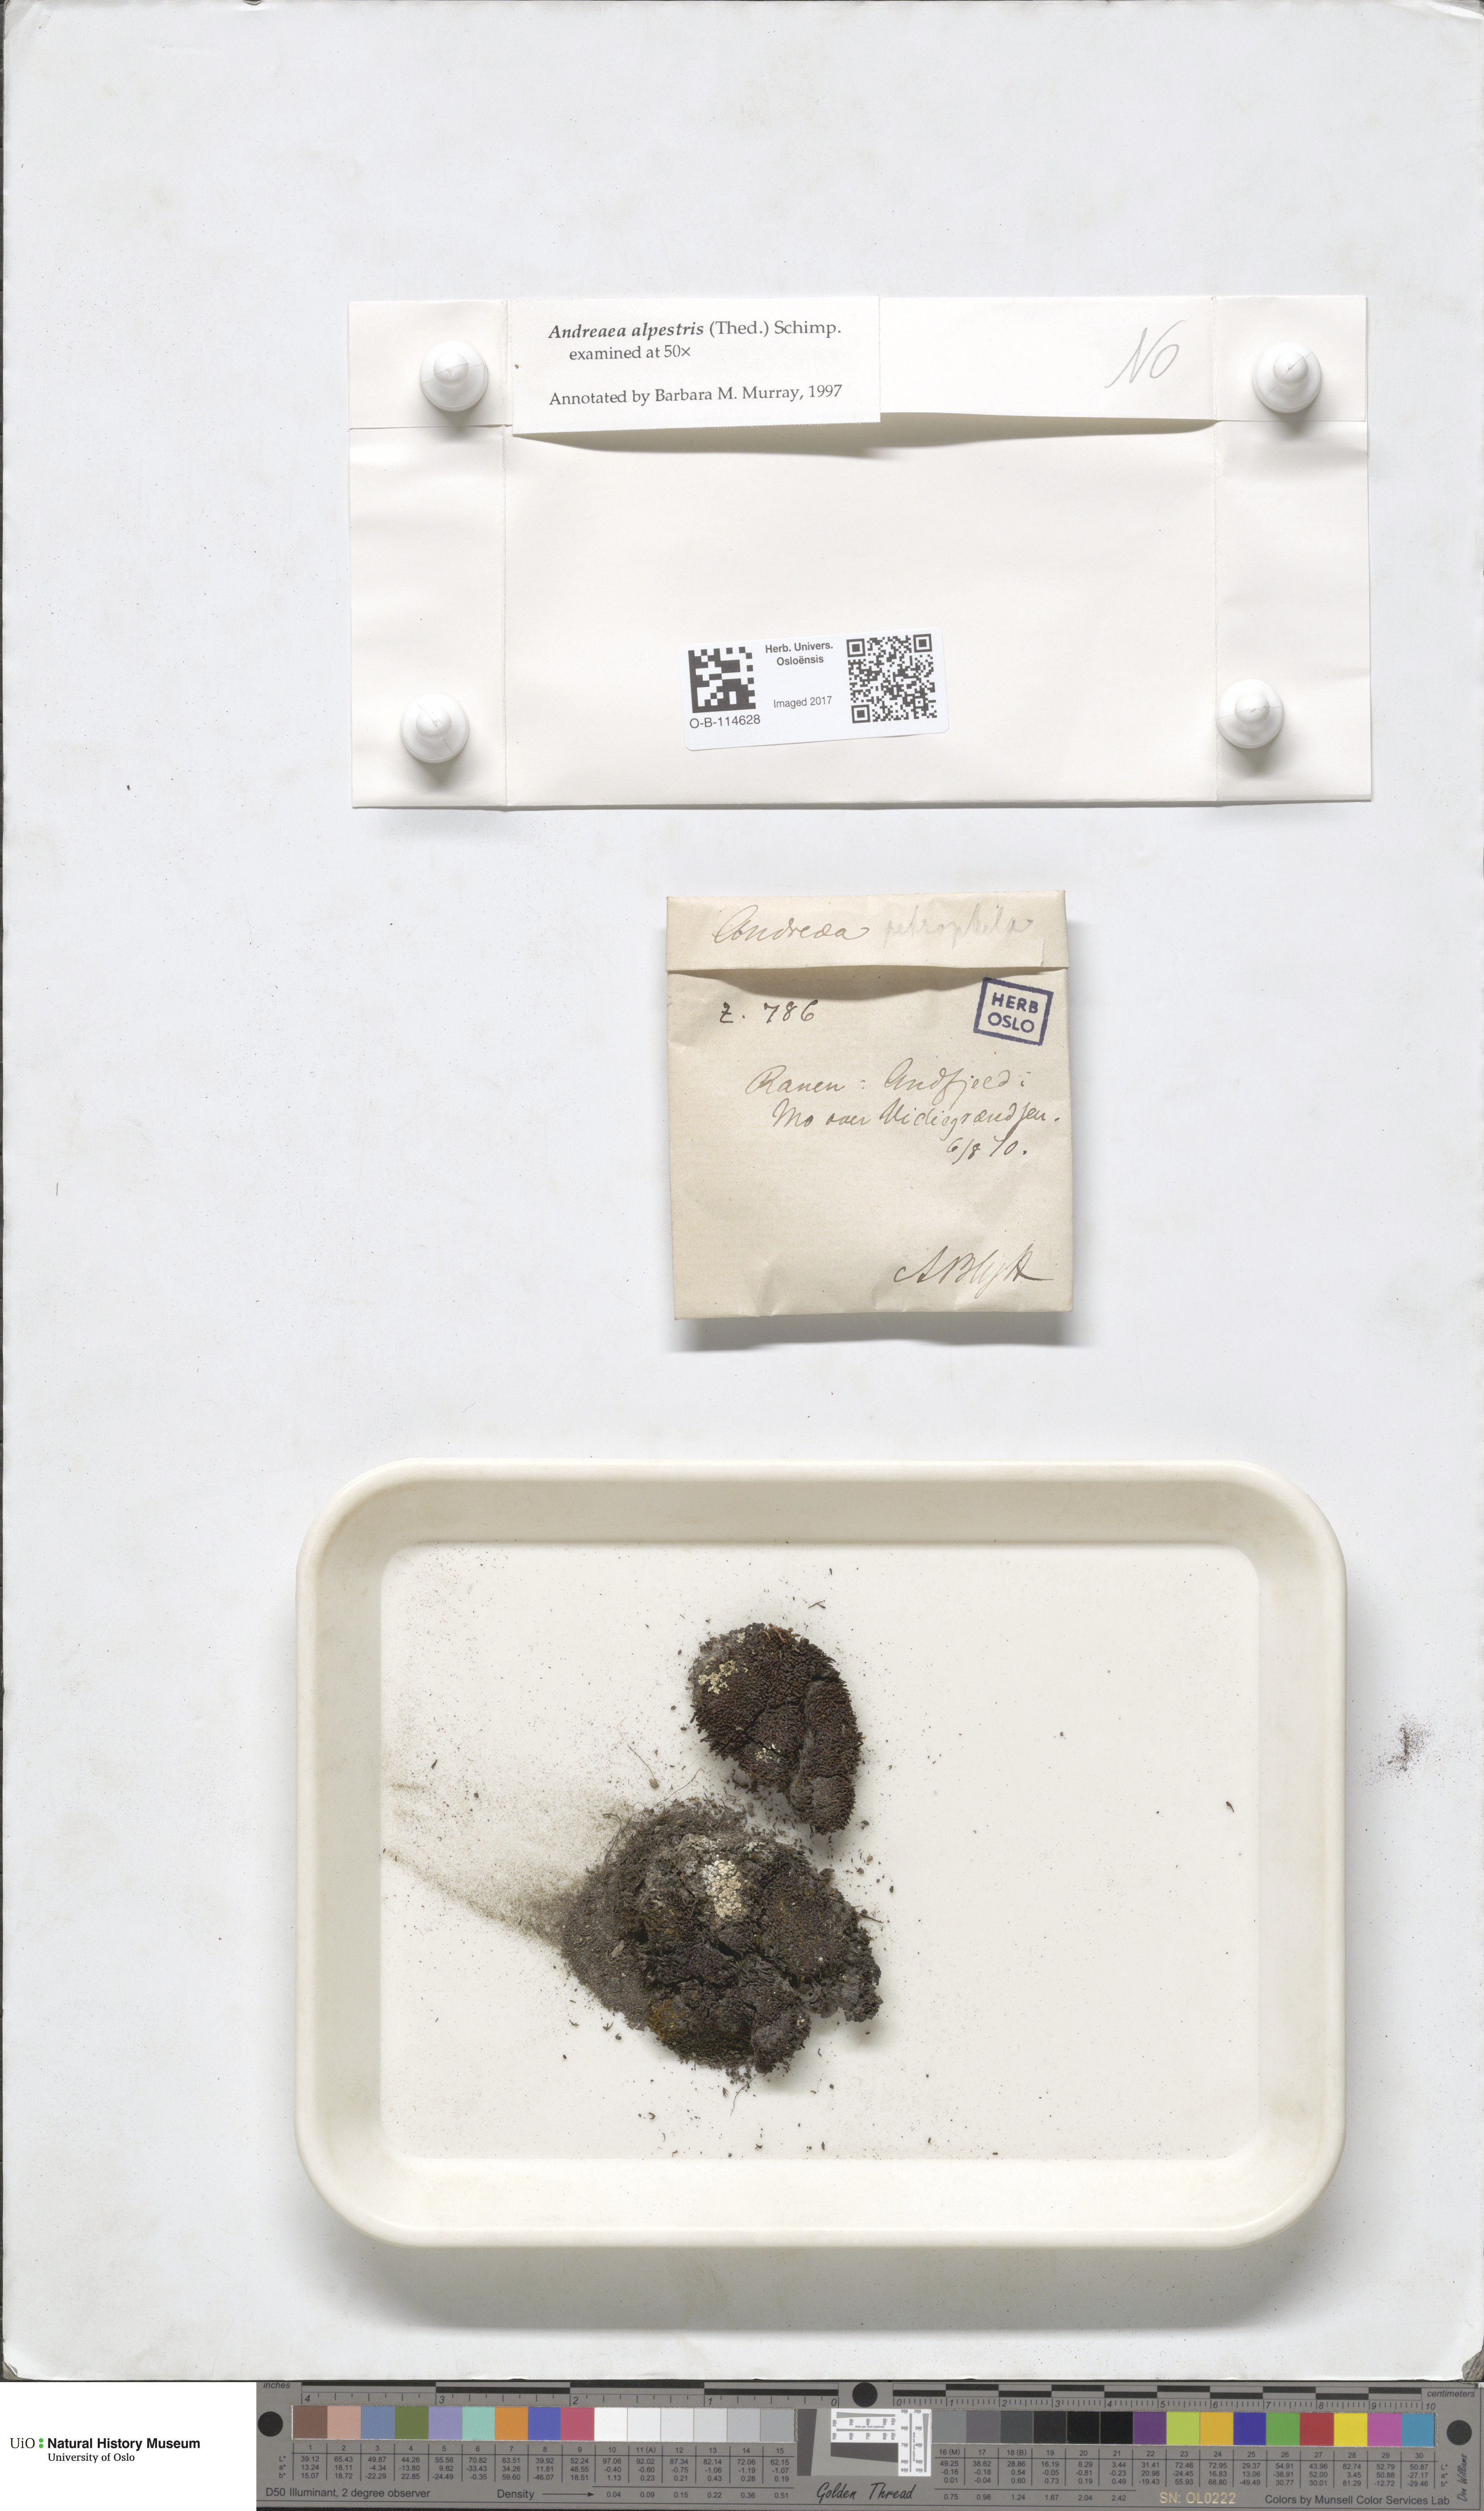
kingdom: Plantae
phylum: Bryophyta
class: Andreaeopsida
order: Andreaeales
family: Andreaeaceae
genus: Andreaea
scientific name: Andreaea alpestris
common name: Slender rock-moss
